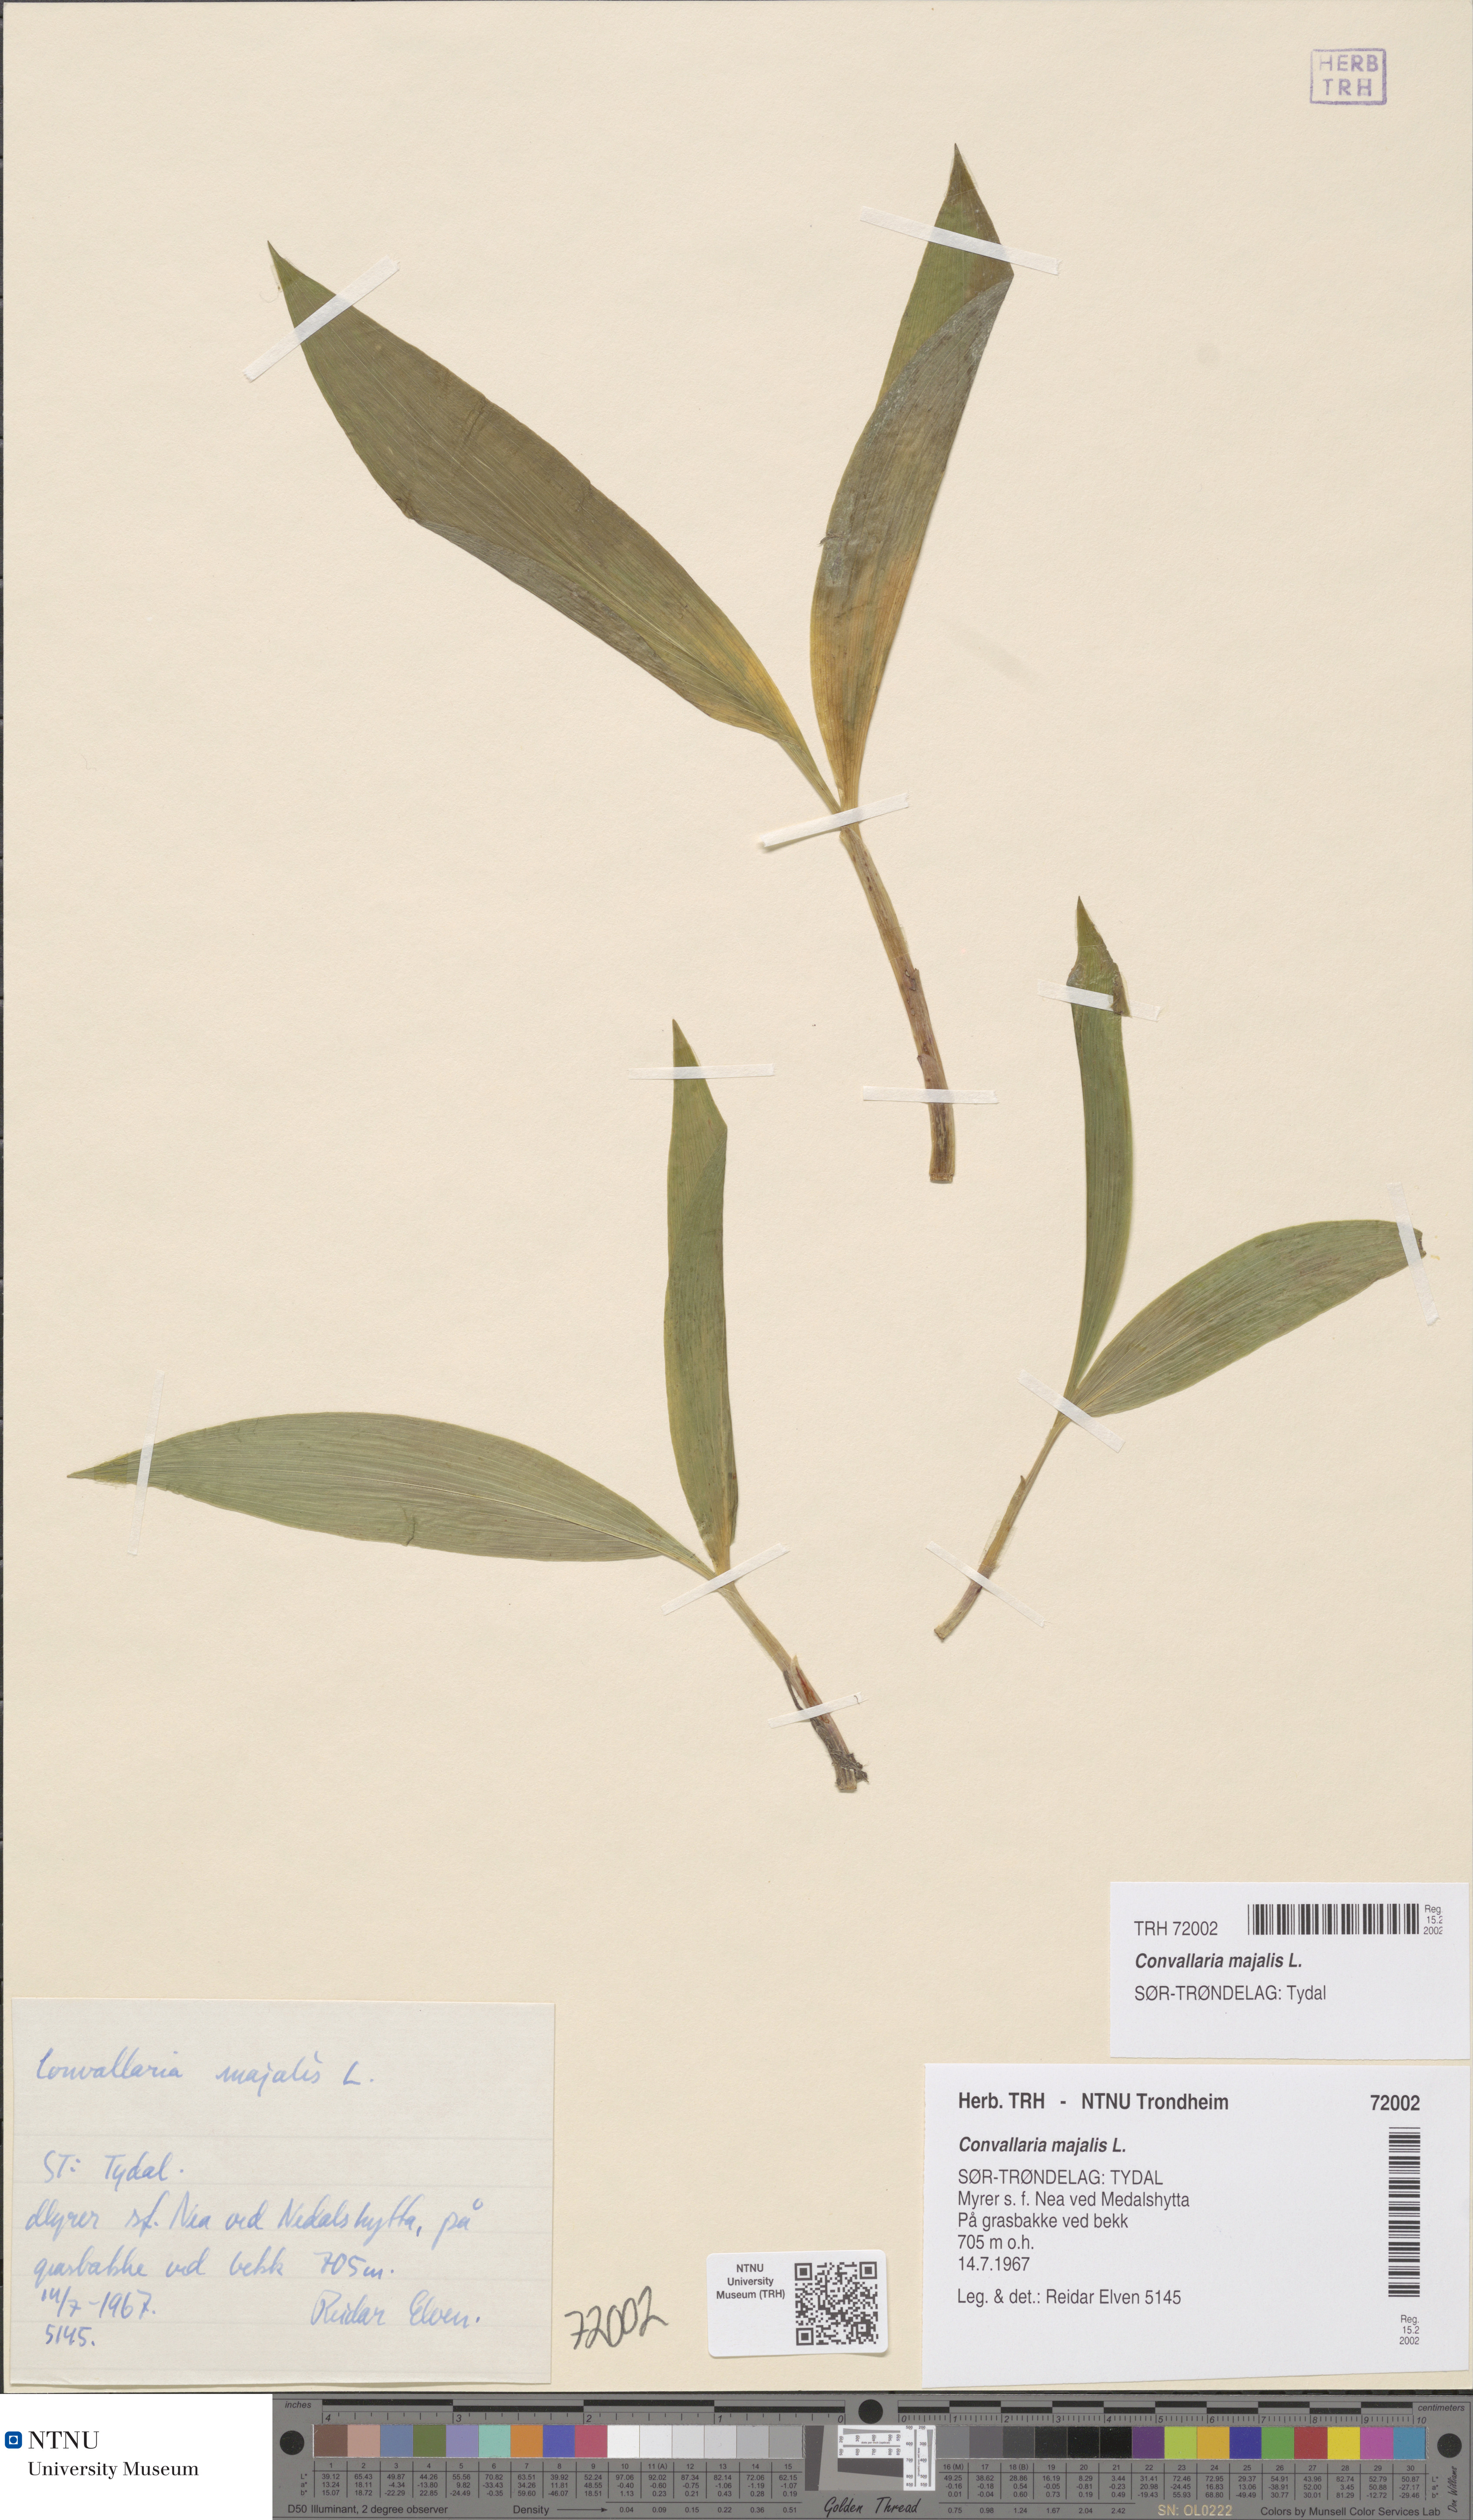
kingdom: Plantae
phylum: Tracheophyta
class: Liliopsida
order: Asparagales
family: Asparagaceae
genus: Convallaria
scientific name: Convallaria majalis
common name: Lily-of-the-valley
